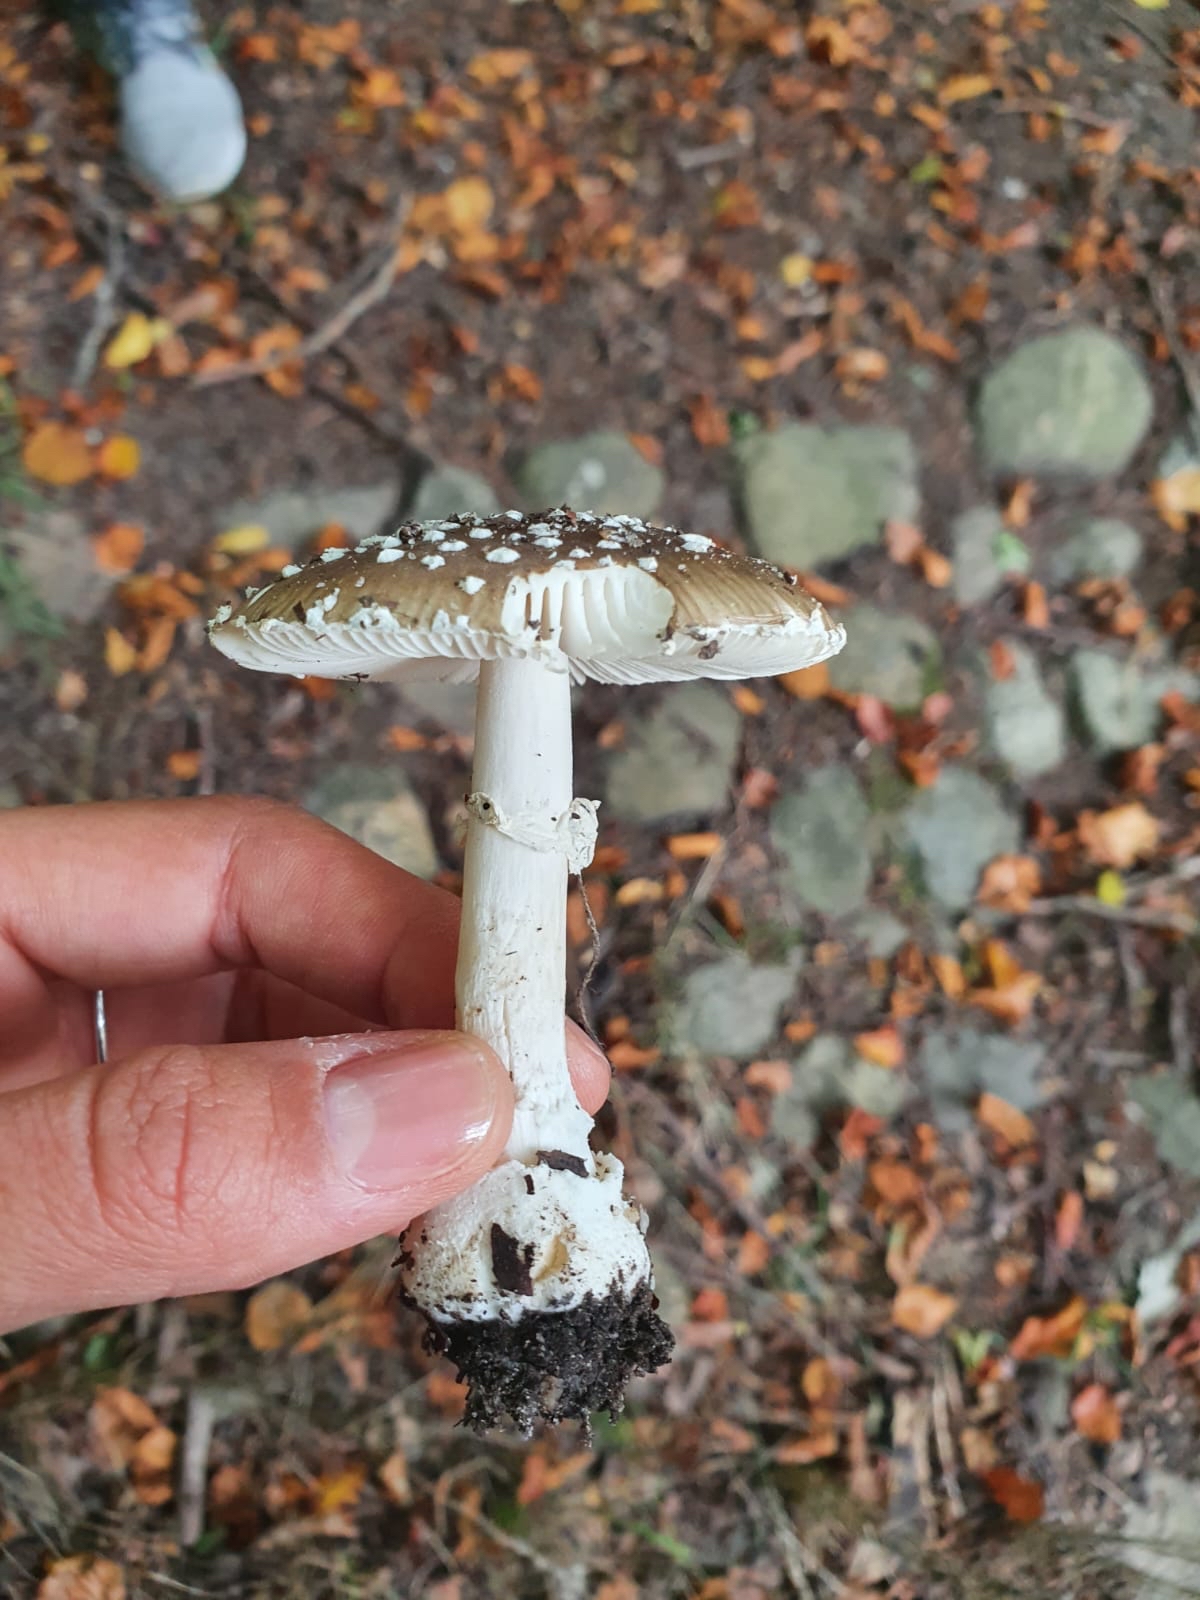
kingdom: Fungi
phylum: Basidiomycota
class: Agaricomycetes
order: Agaricales
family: Amanitaceae
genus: Amanita
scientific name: Amanita pantherina
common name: panter-fluesvamp
